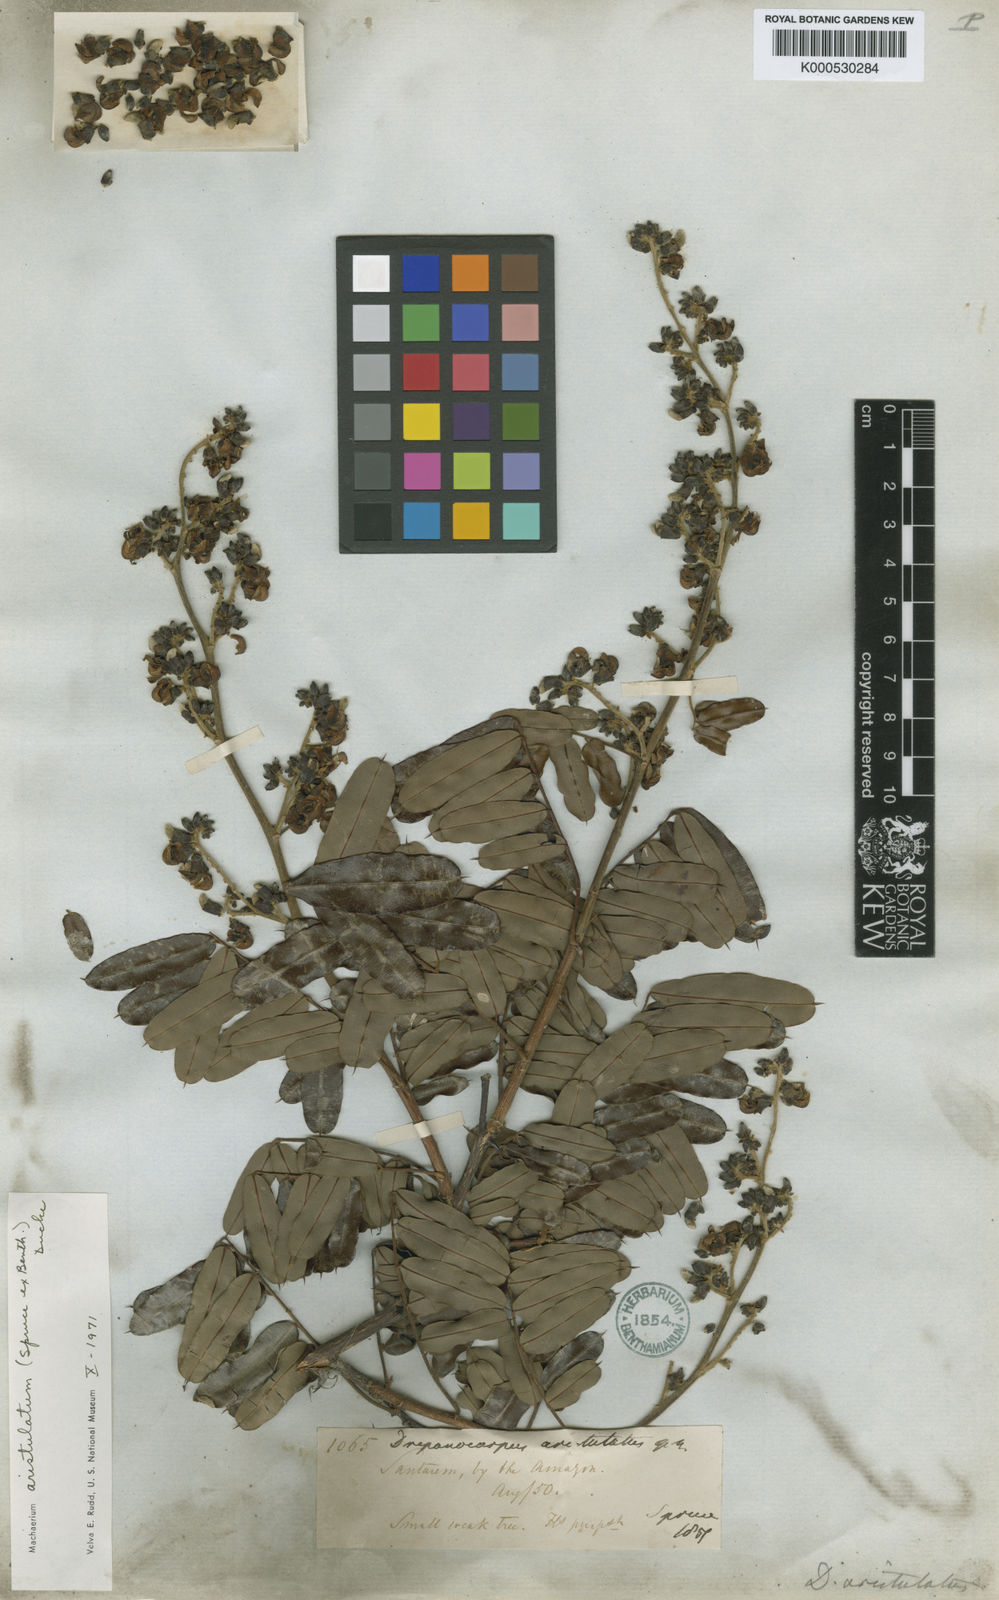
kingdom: Plantae
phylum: Tracheophyta
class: Magnoliopsida
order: Fabales
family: Fabaceae
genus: Machaerium
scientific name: Machaerium aristulatum
